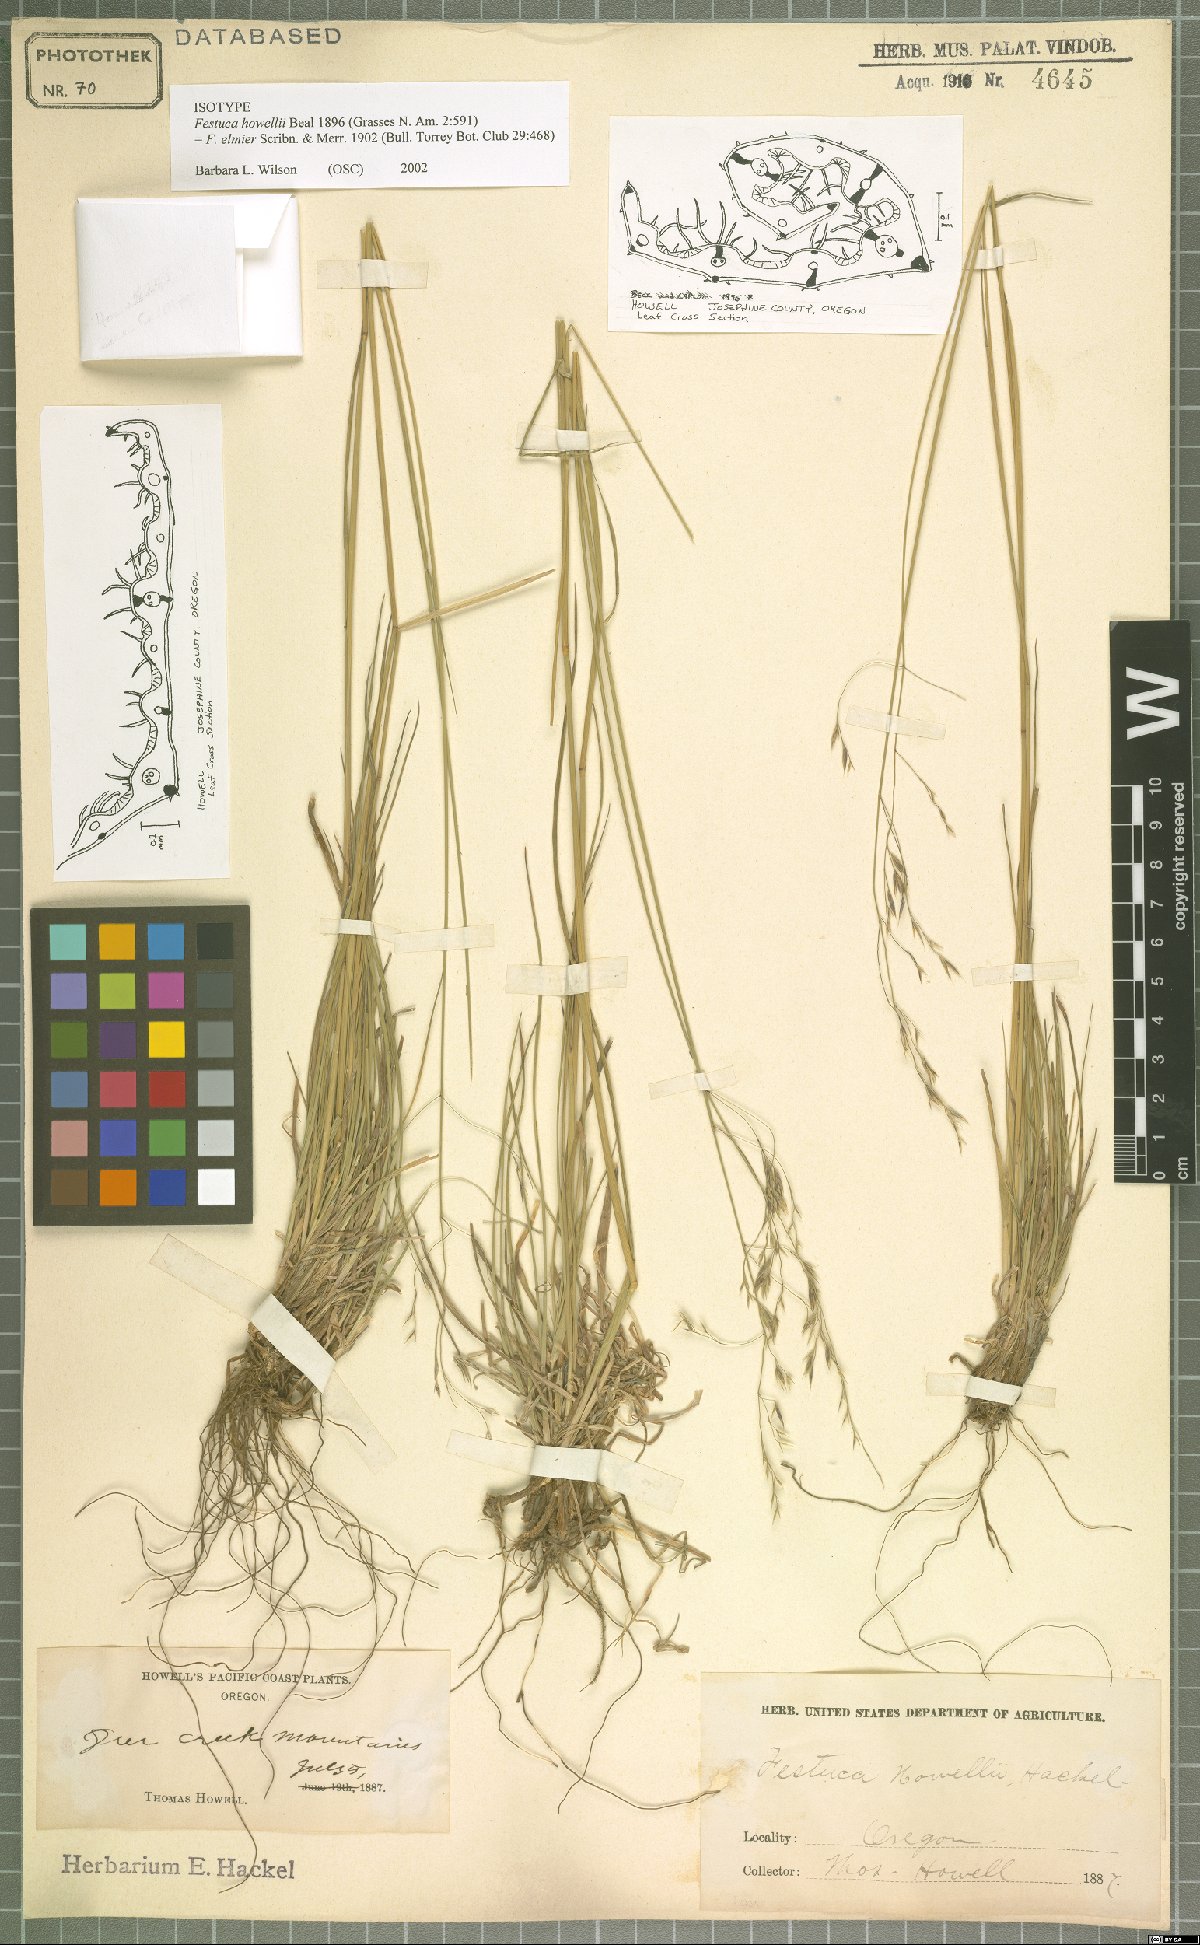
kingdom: Plantae
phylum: Tracheophyta
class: Liliopsida
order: Poales
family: Poaceae
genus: Festuca
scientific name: Festuca elmeri
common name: Coast fescue
